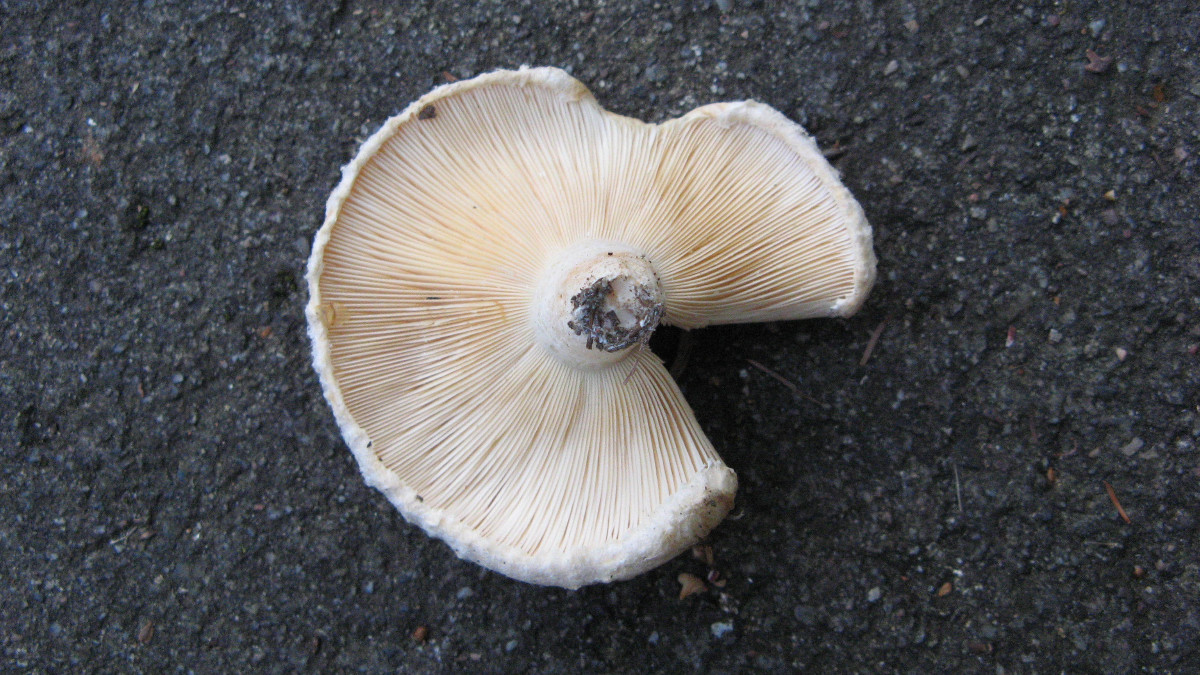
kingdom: Fungi
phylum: Basidiomycota
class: Agaricomycetes
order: Russulales
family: Russulaceae
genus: Lactarius
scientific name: Lactarius pubescens
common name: dunet mælkehat
